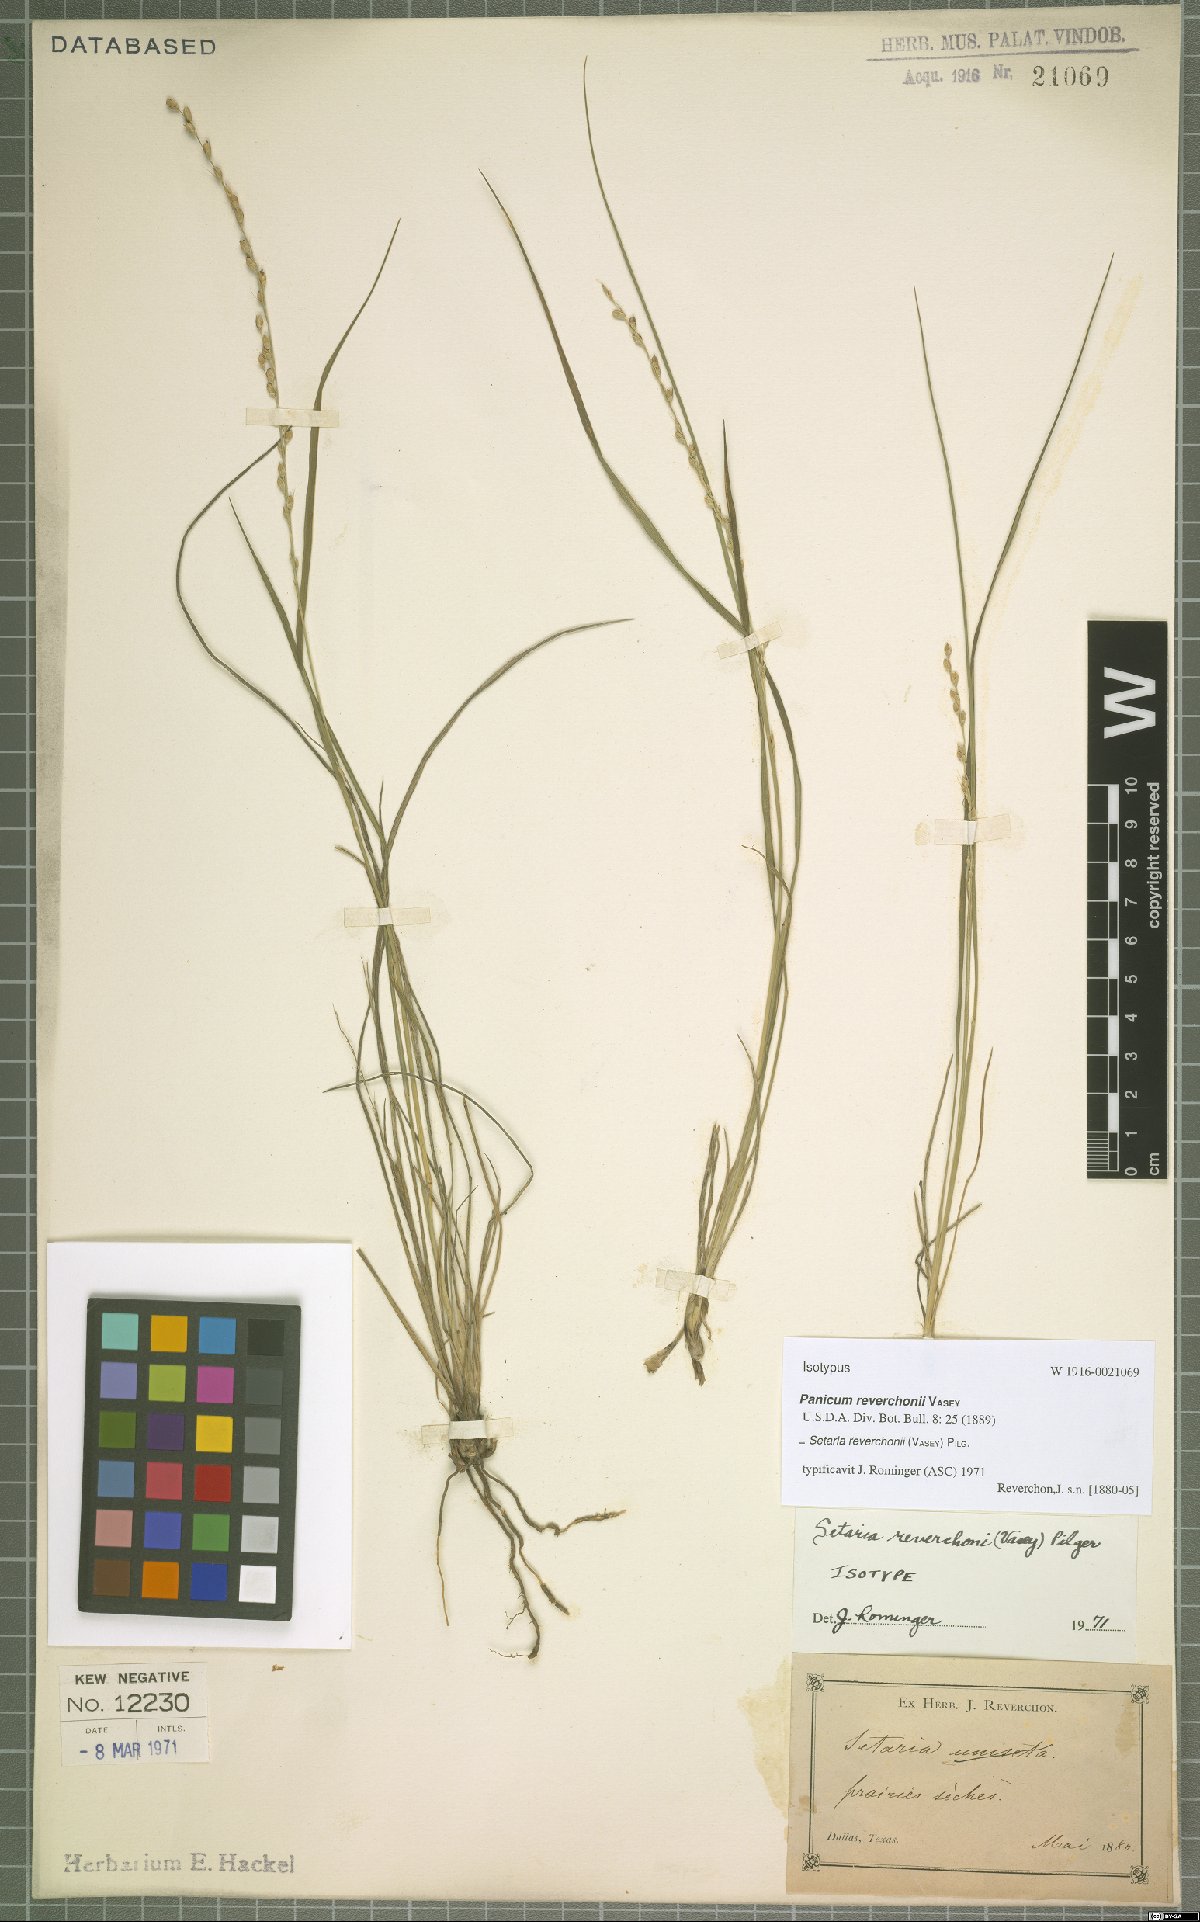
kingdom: Plantae
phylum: Tracheophyta
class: Liliopsida
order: Poales
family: Poaceae
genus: Setaria
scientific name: Setaria reverchonii
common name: Reverchon's bristle grass
